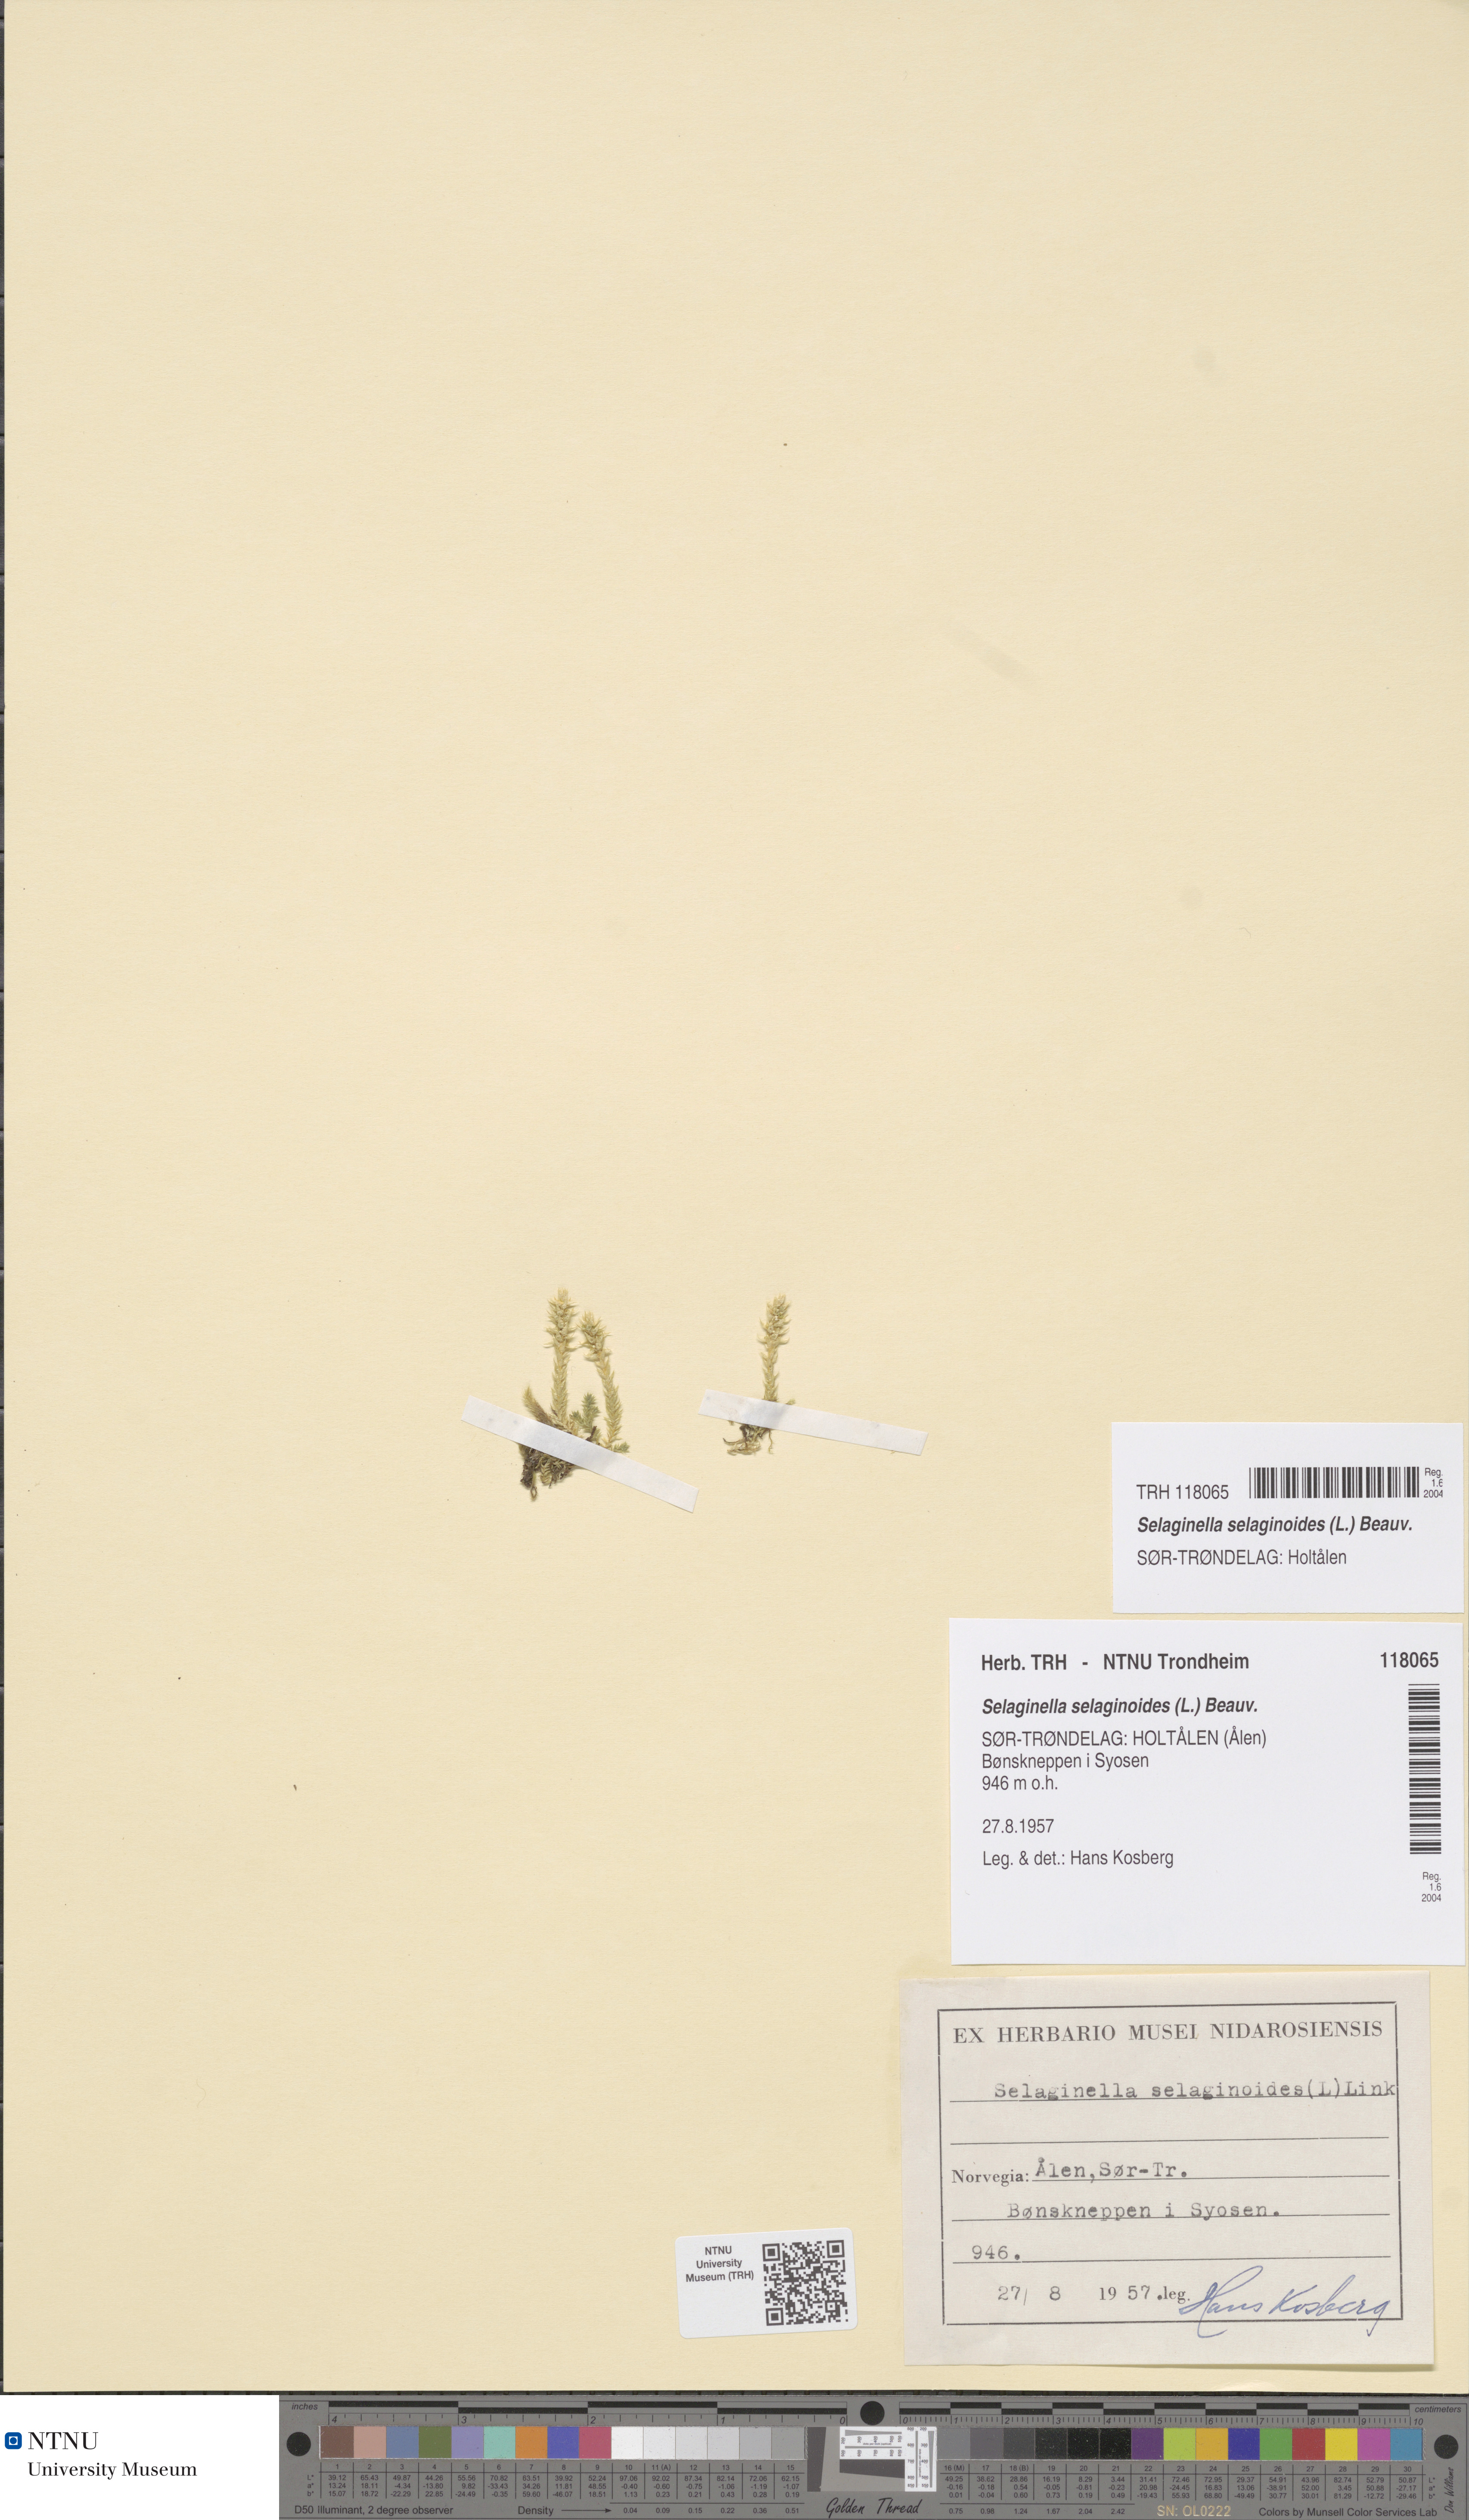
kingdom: Plantae
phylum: Tracheophyta
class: Lycopodiopsida
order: Selaginellales
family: Selaginellaceae
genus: Selaginella
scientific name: Selaginella selaginoides
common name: Prickly mountain-moss
